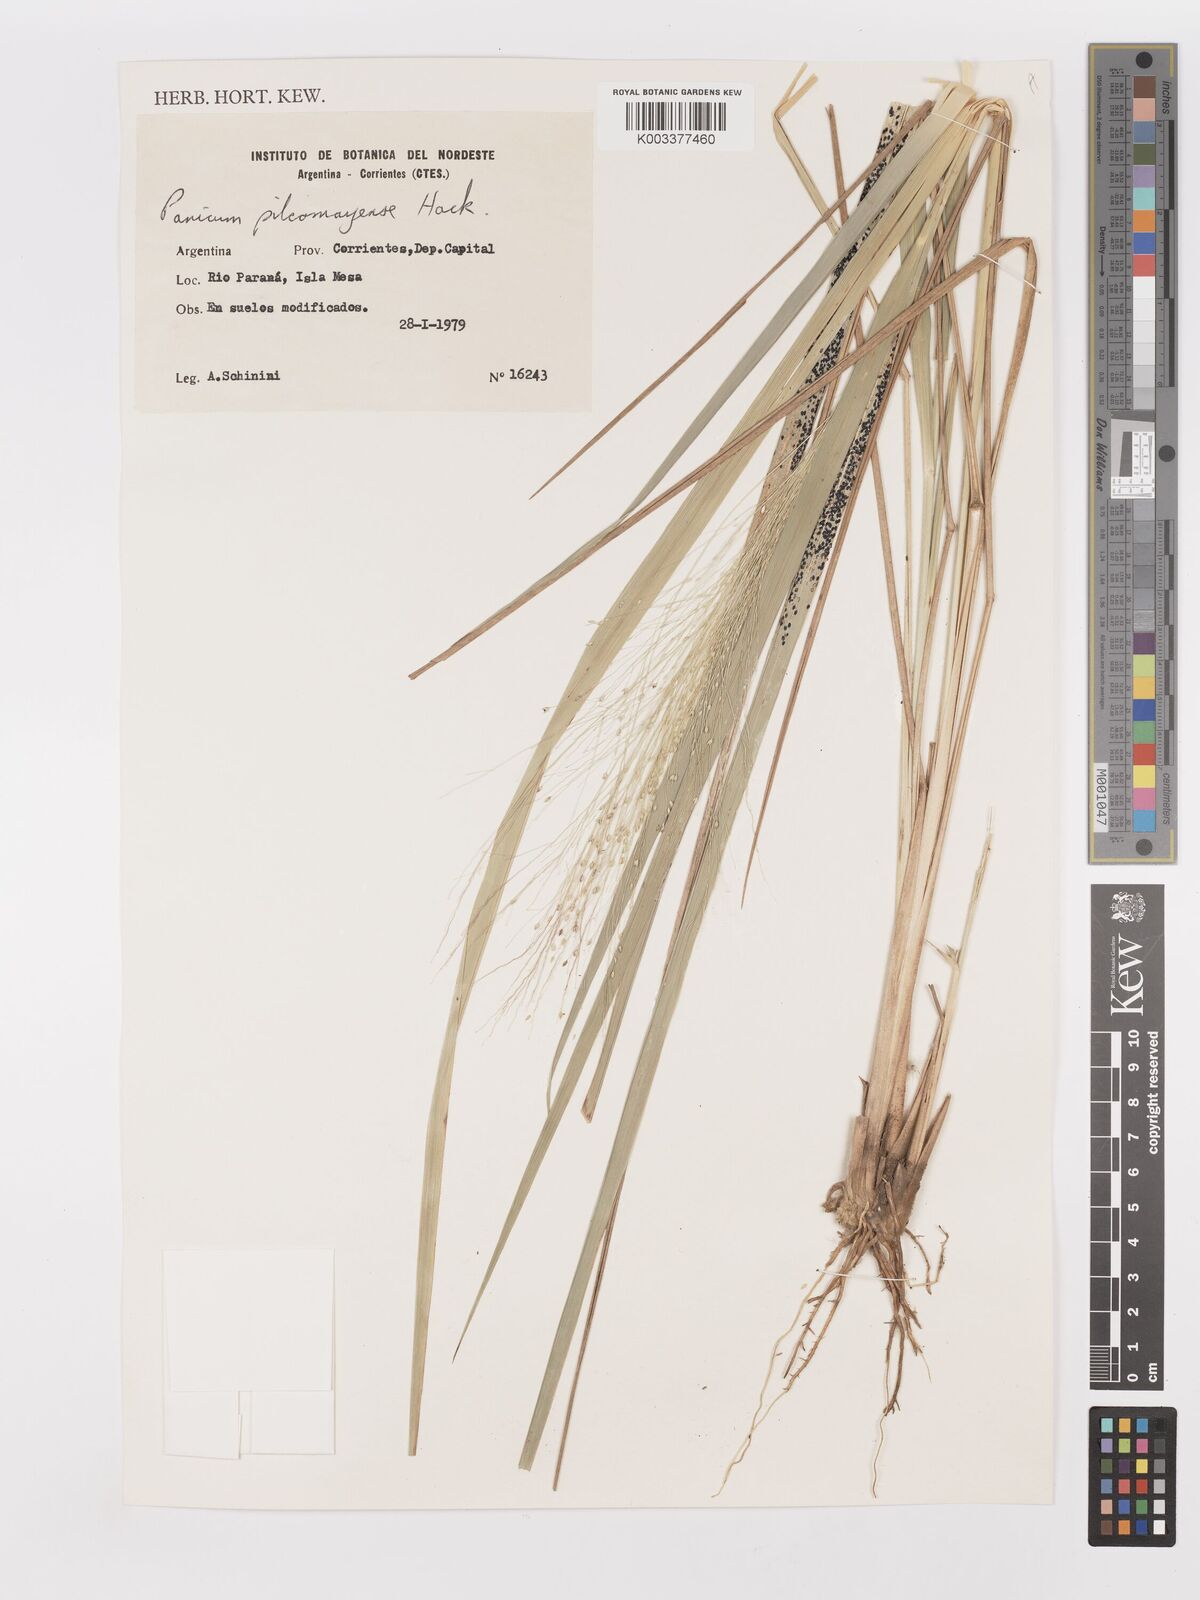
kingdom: Plantae
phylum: Tracheophyta
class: Liliopsida
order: Poales
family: Poaceae
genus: Panicum
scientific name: Panicum bergii
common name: Berg's panicgrass
